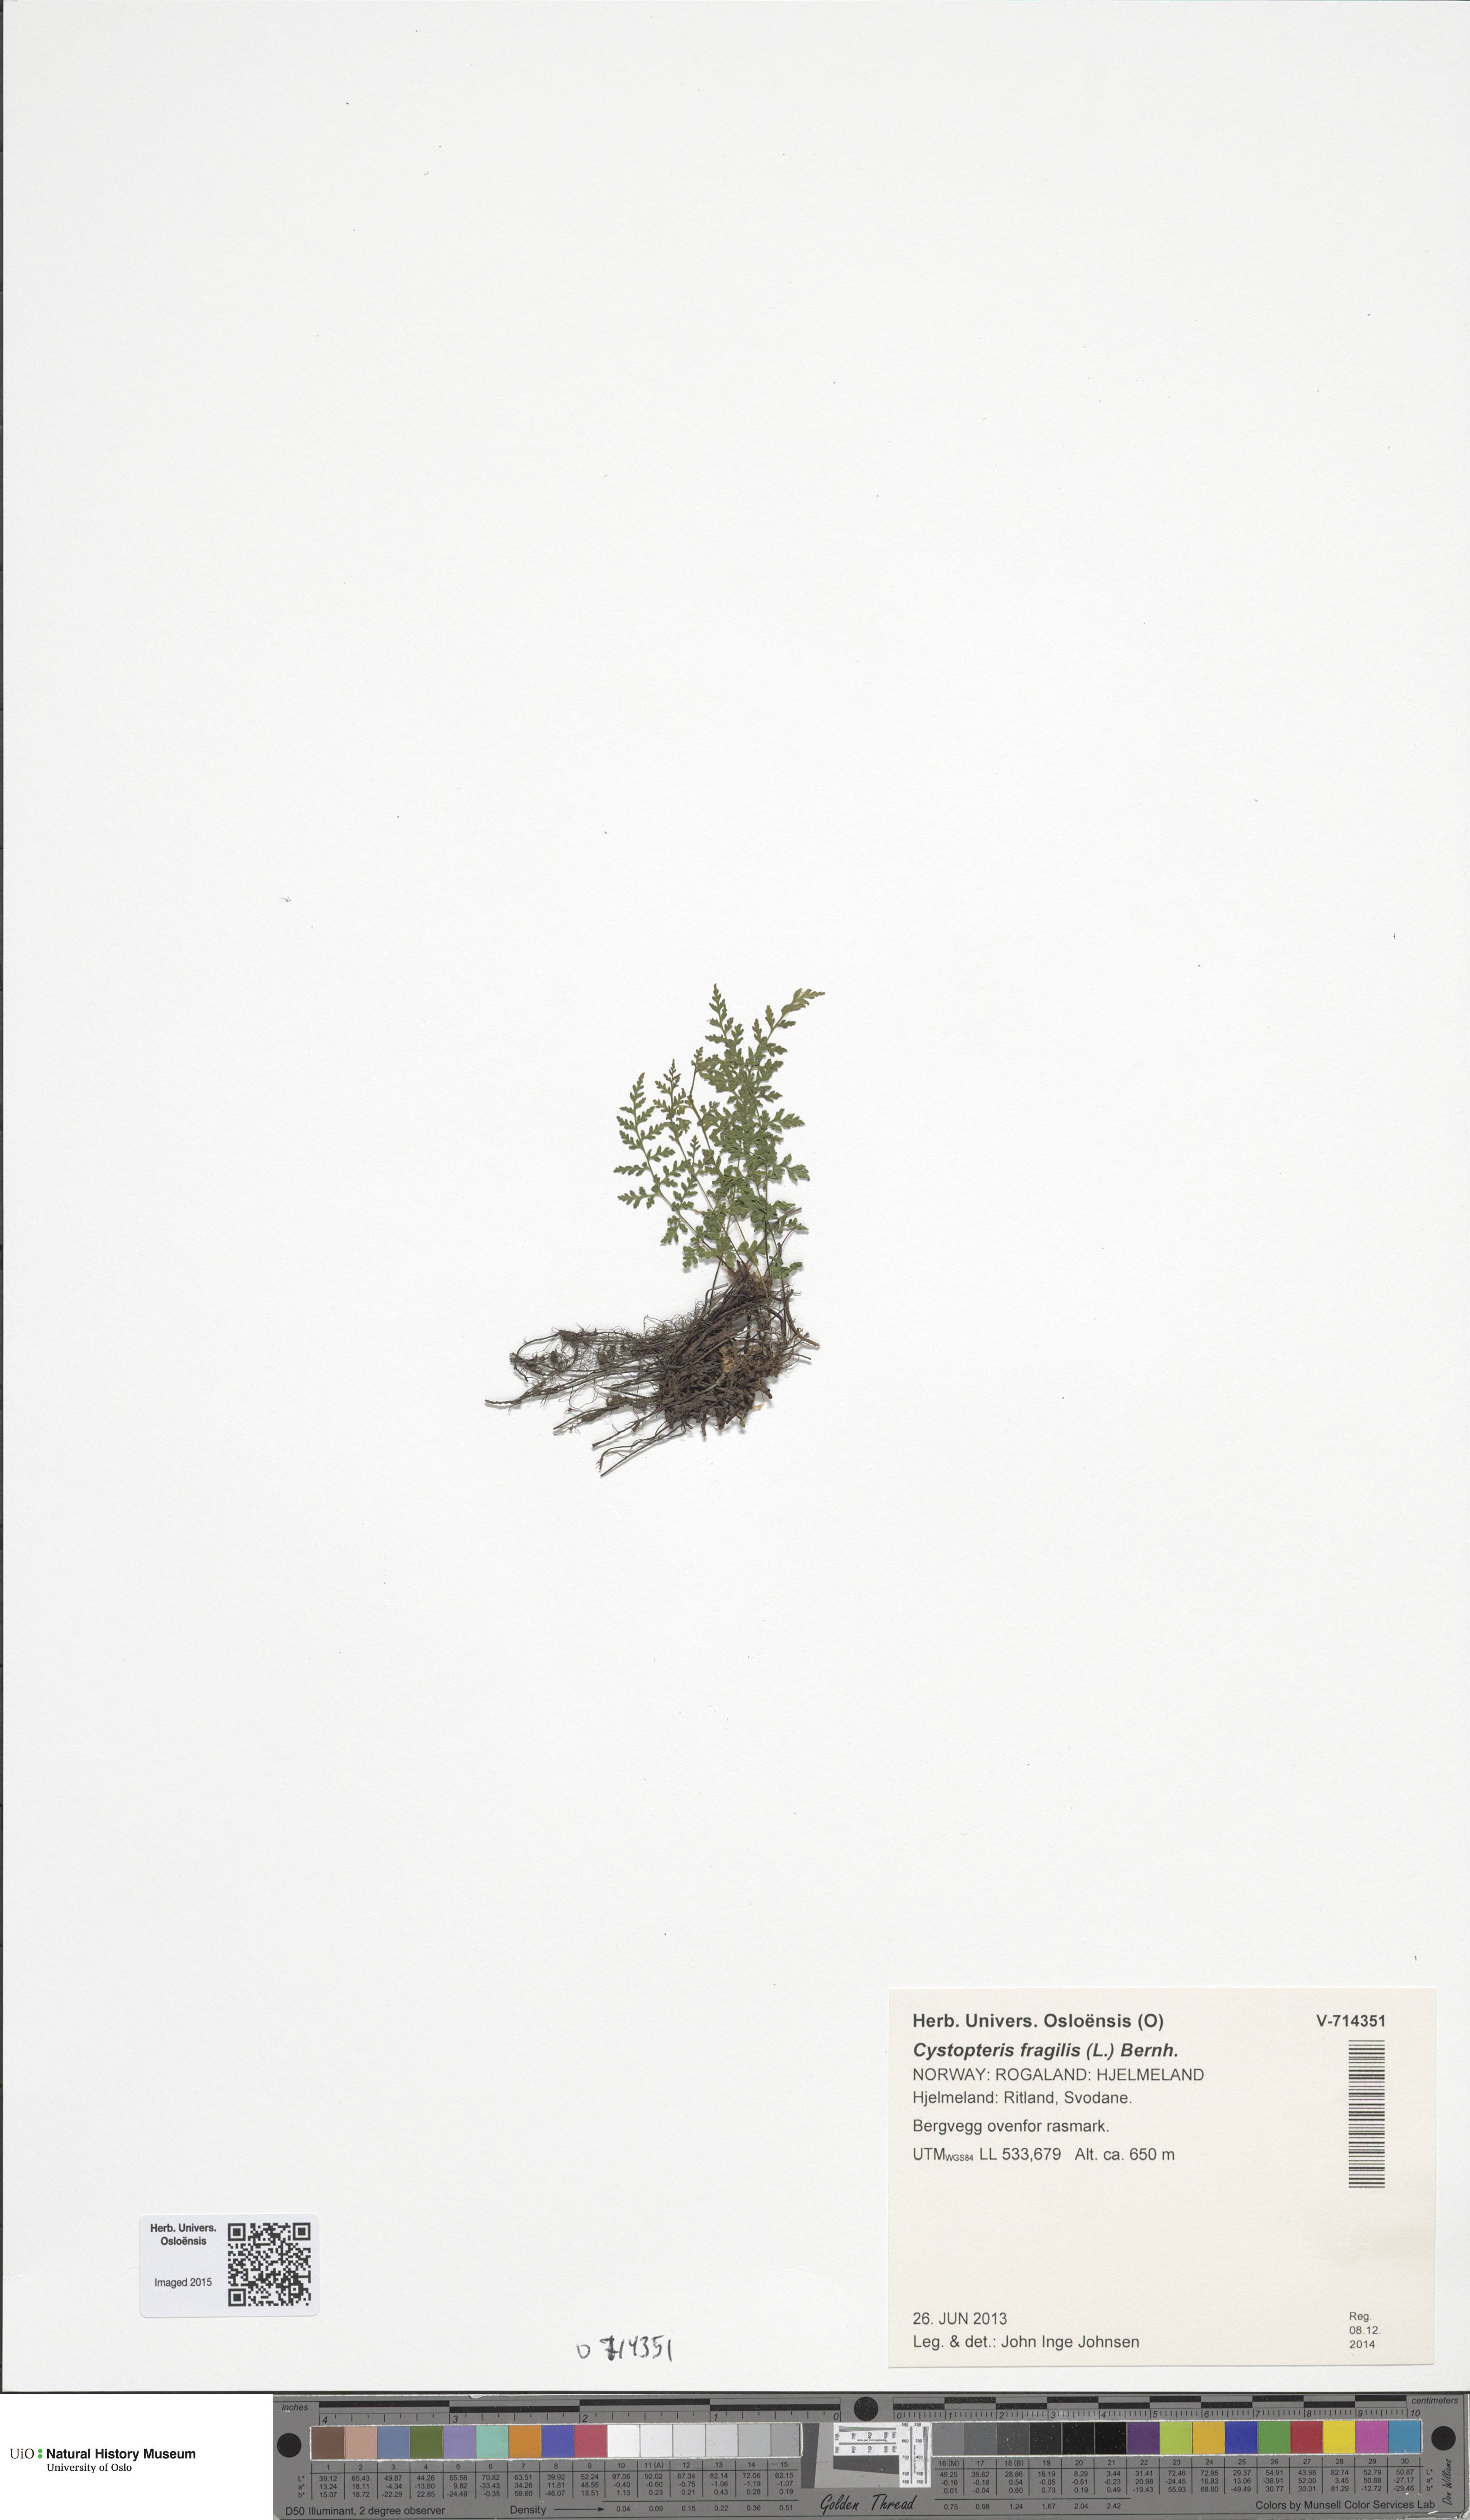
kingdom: Plantae
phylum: Tracheophyta
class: Polypodiopsida
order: Polypodiales
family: Cystopteridaceae
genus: Cystopteris
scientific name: Cystopteris fragilis
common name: Brittle bladder fern
